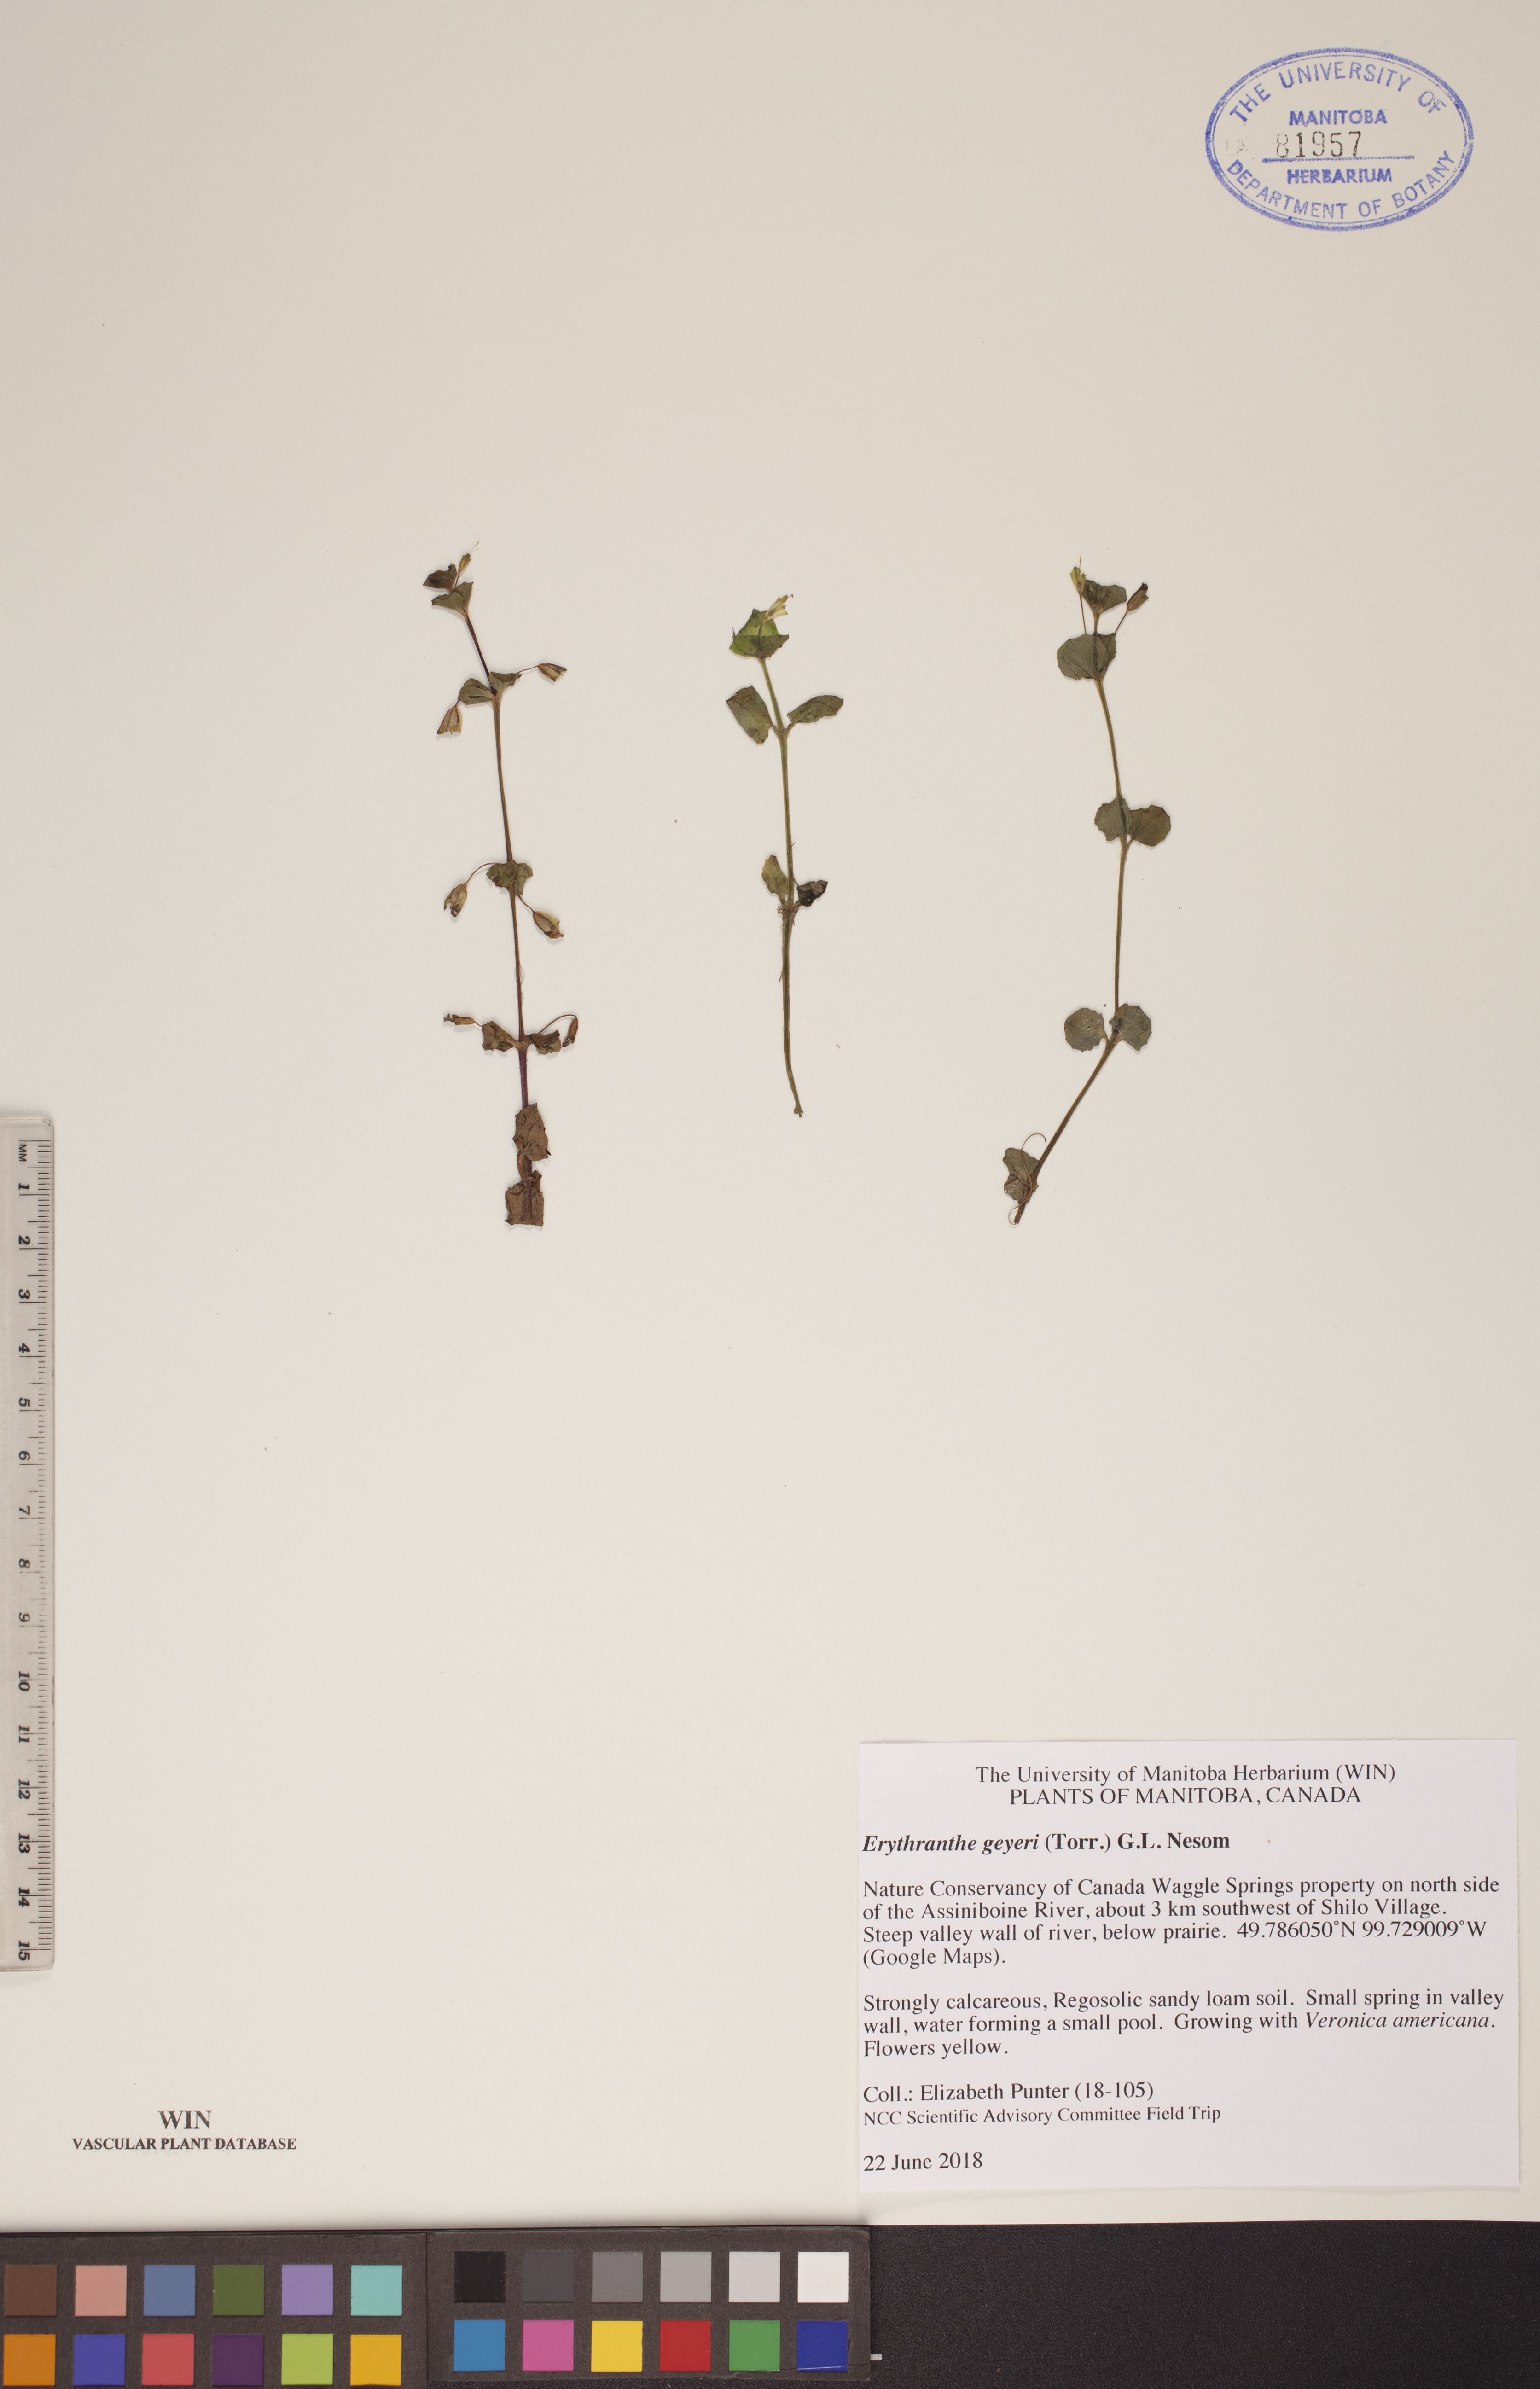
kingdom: Plantae
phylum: Tracheophyta
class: Magnoliopsida
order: Lamiales
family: Phrymaceae
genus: Erythranthe
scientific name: Erythranthe geyeri
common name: Geyer's monkeyflower
